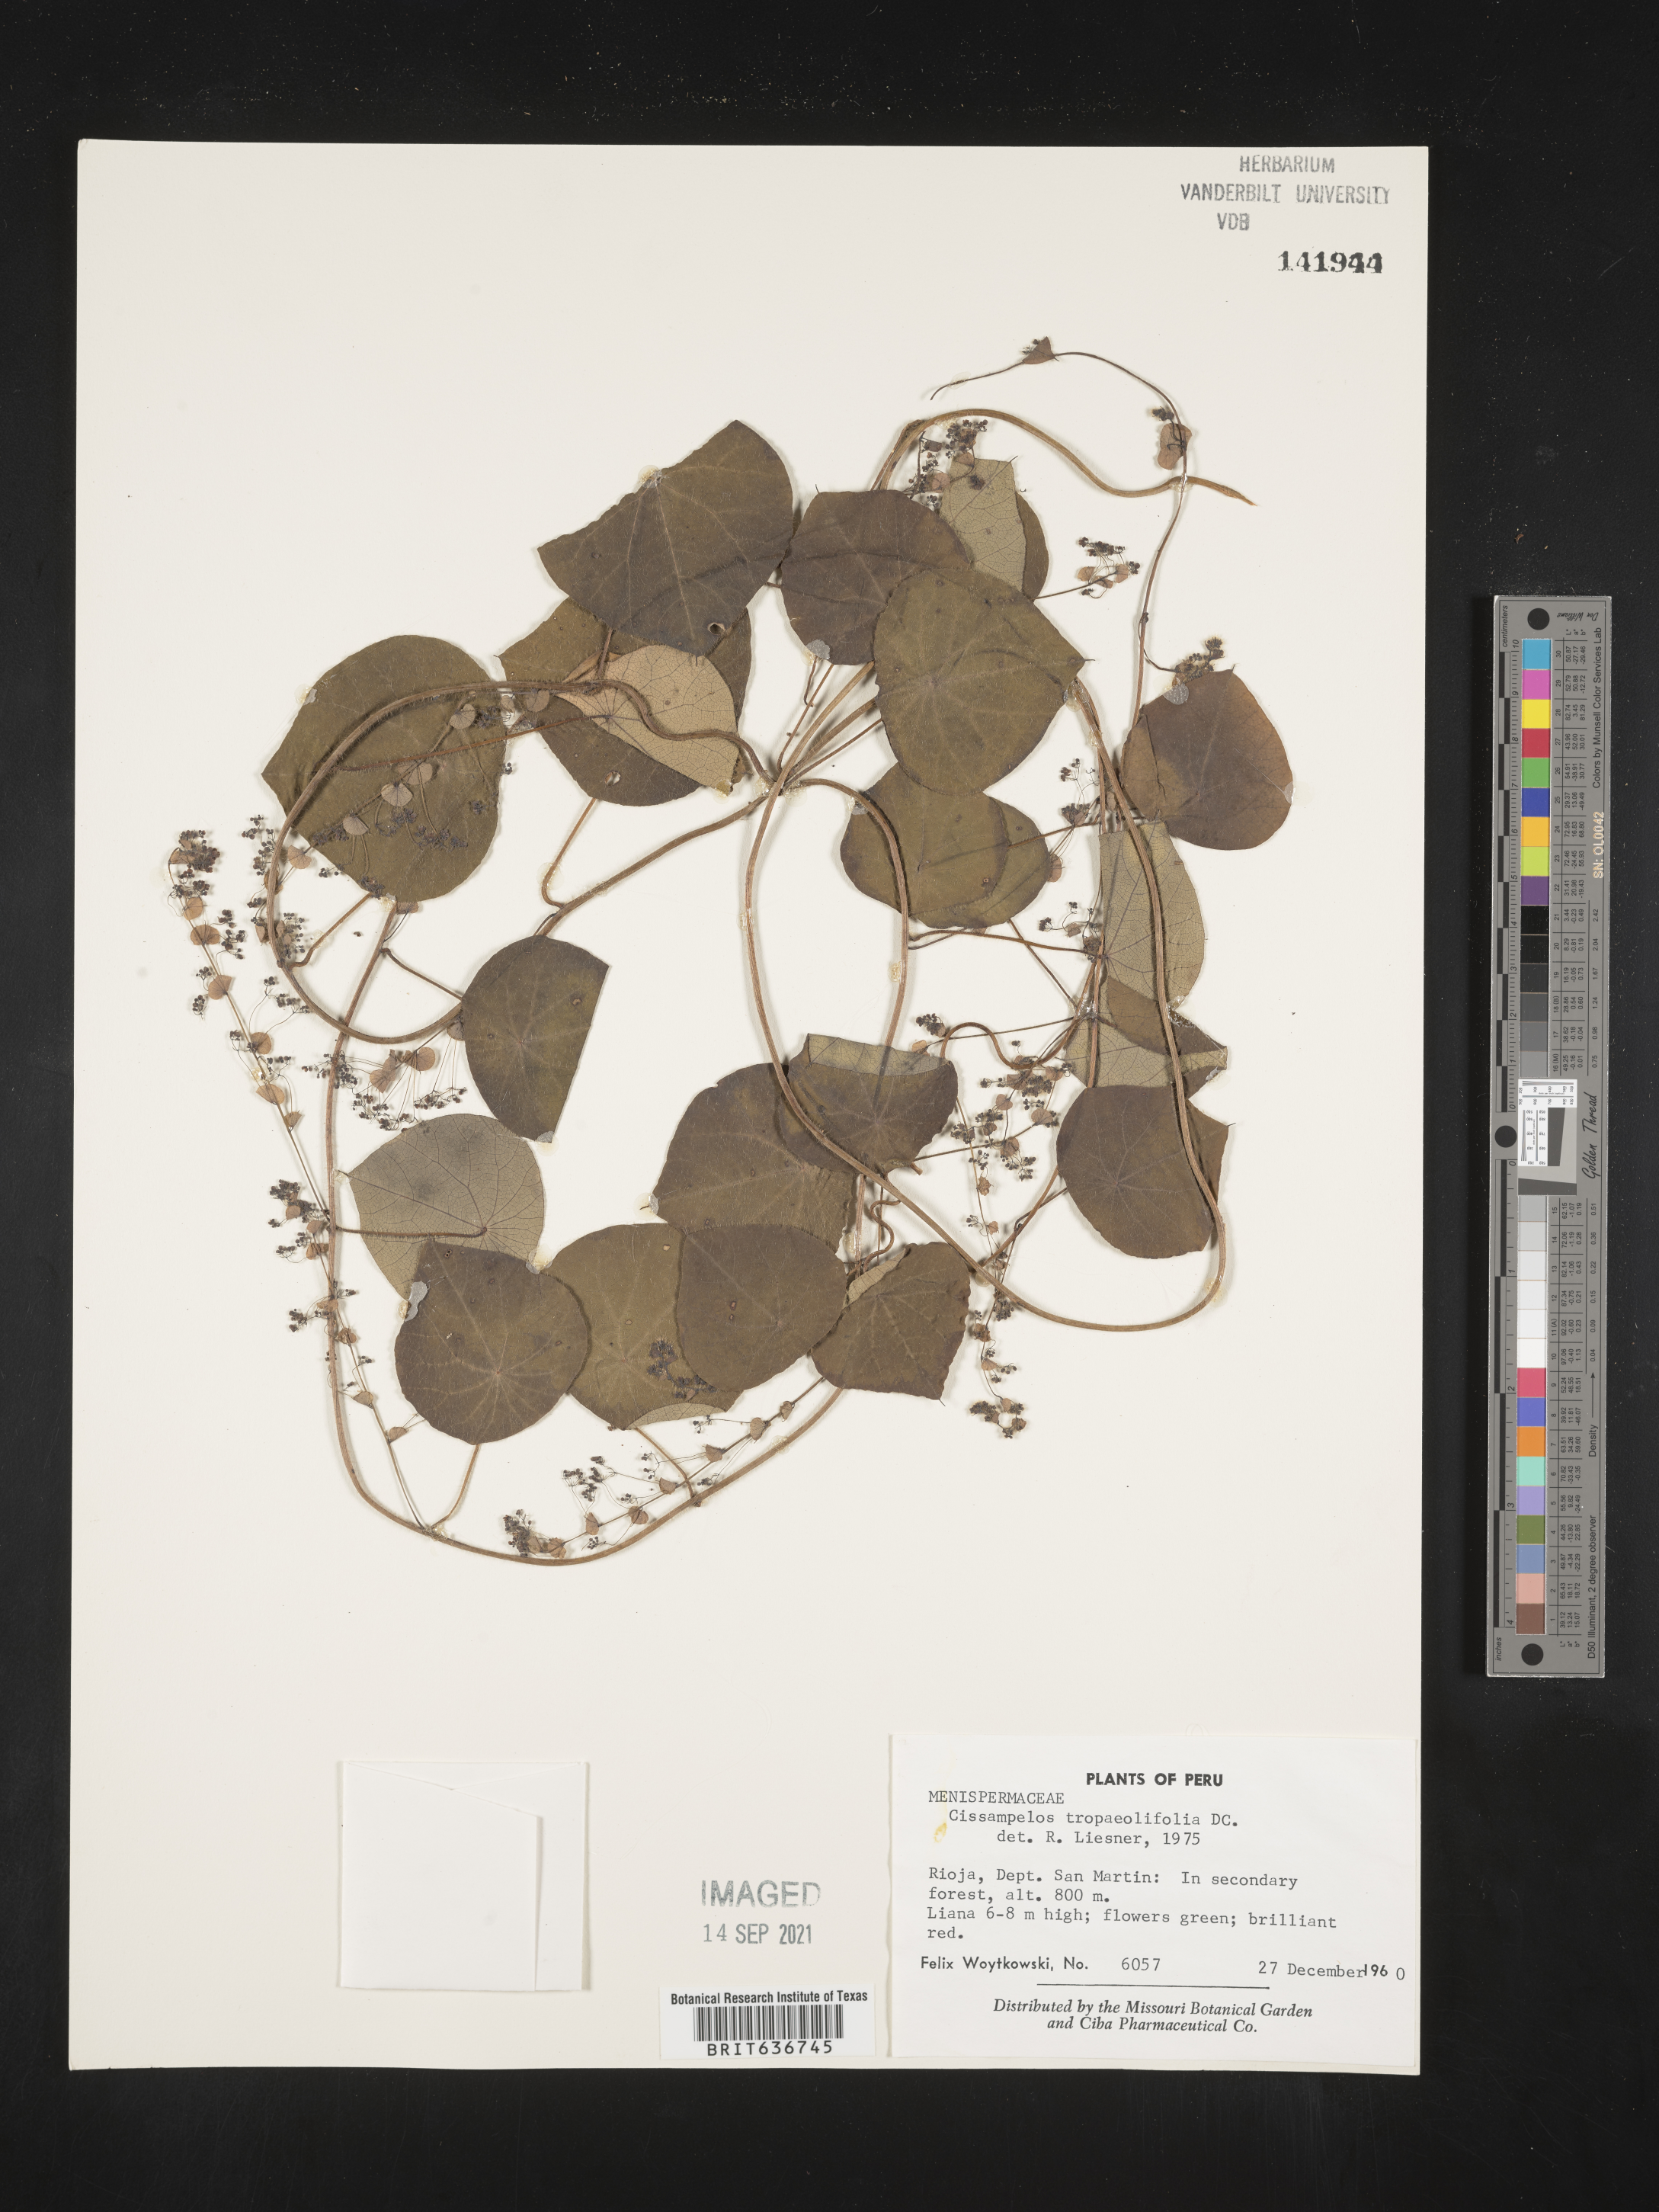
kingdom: Plantae
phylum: Tracheophyta
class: Magnoliopsida
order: Ranunculales
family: Menispermaceae
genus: Cissampelos
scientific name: Cissampelos
